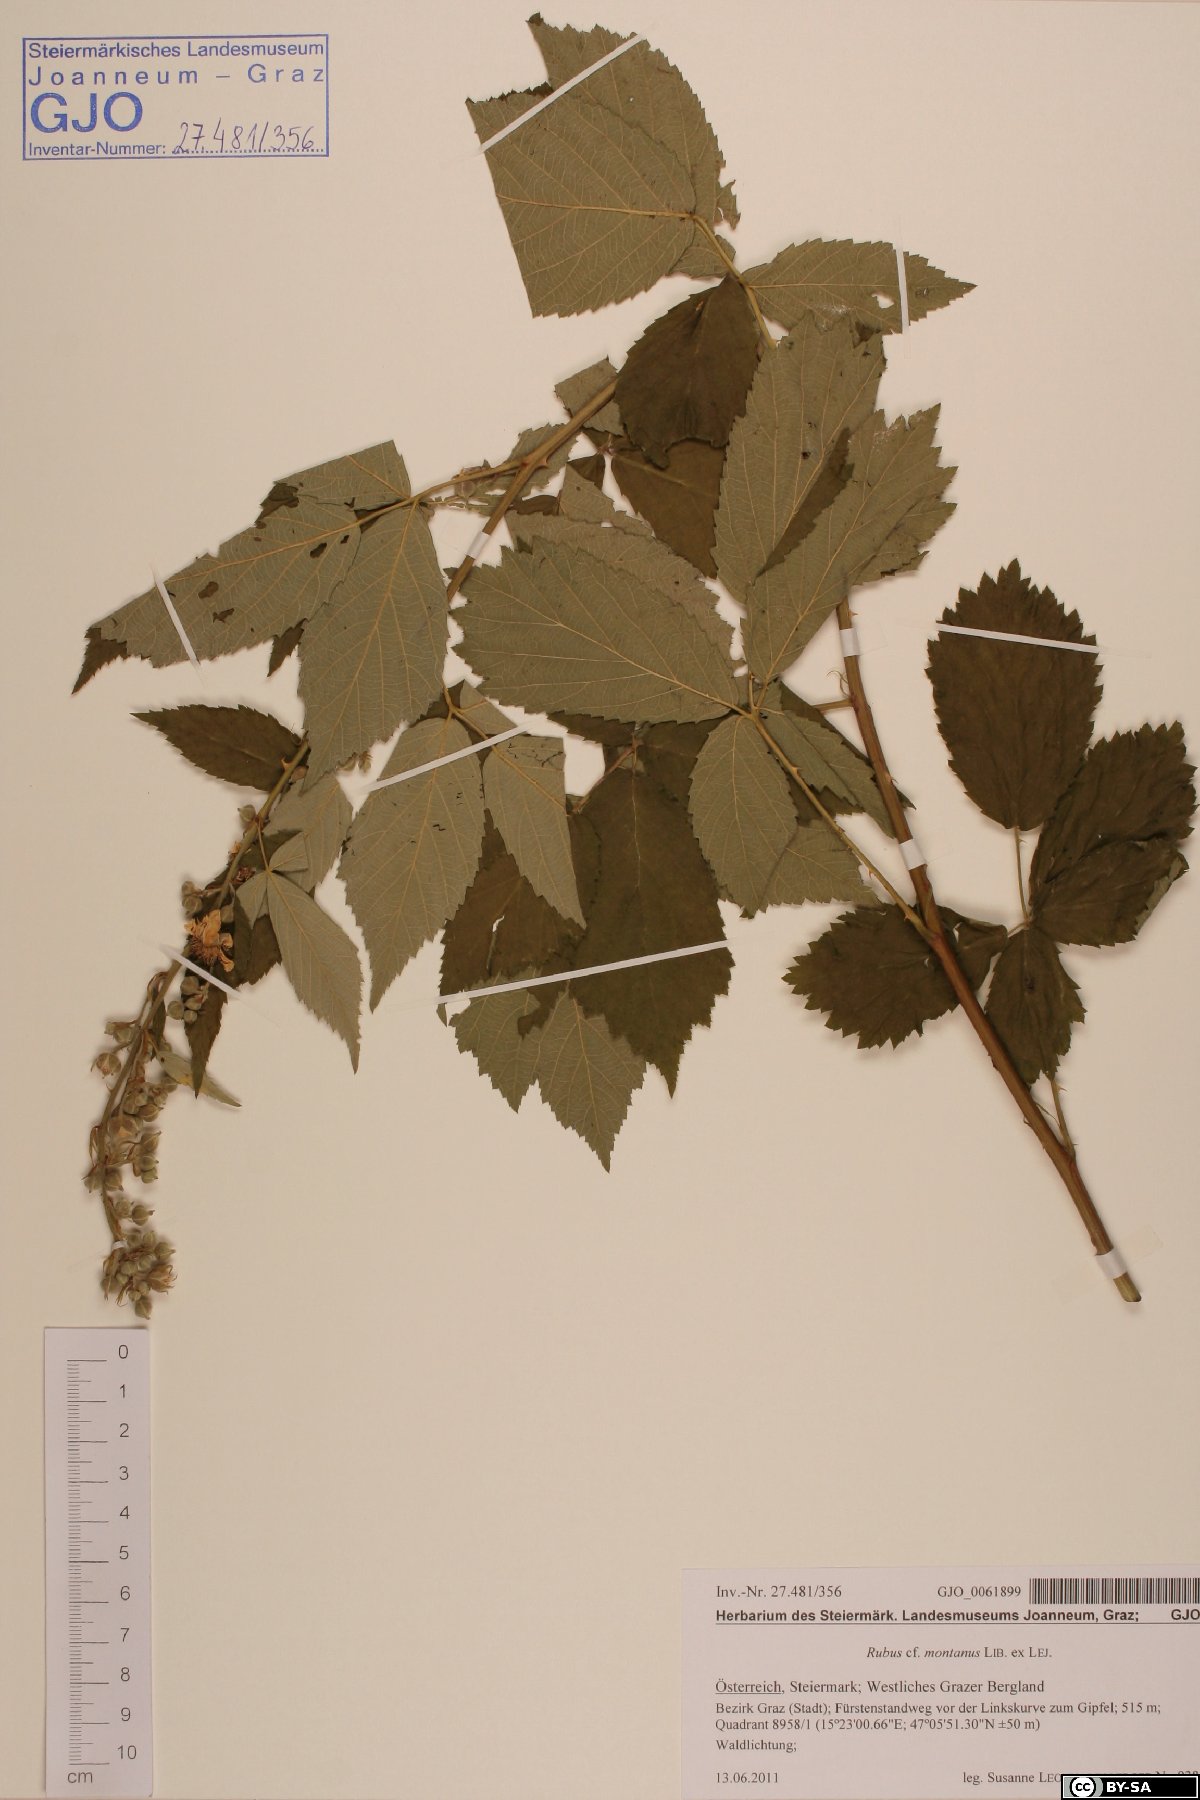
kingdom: Plantae
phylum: Tracheophyta
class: Magnoliopsida
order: Rosales
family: Rosaceae
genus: Rubus
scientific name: Rubus montanus
